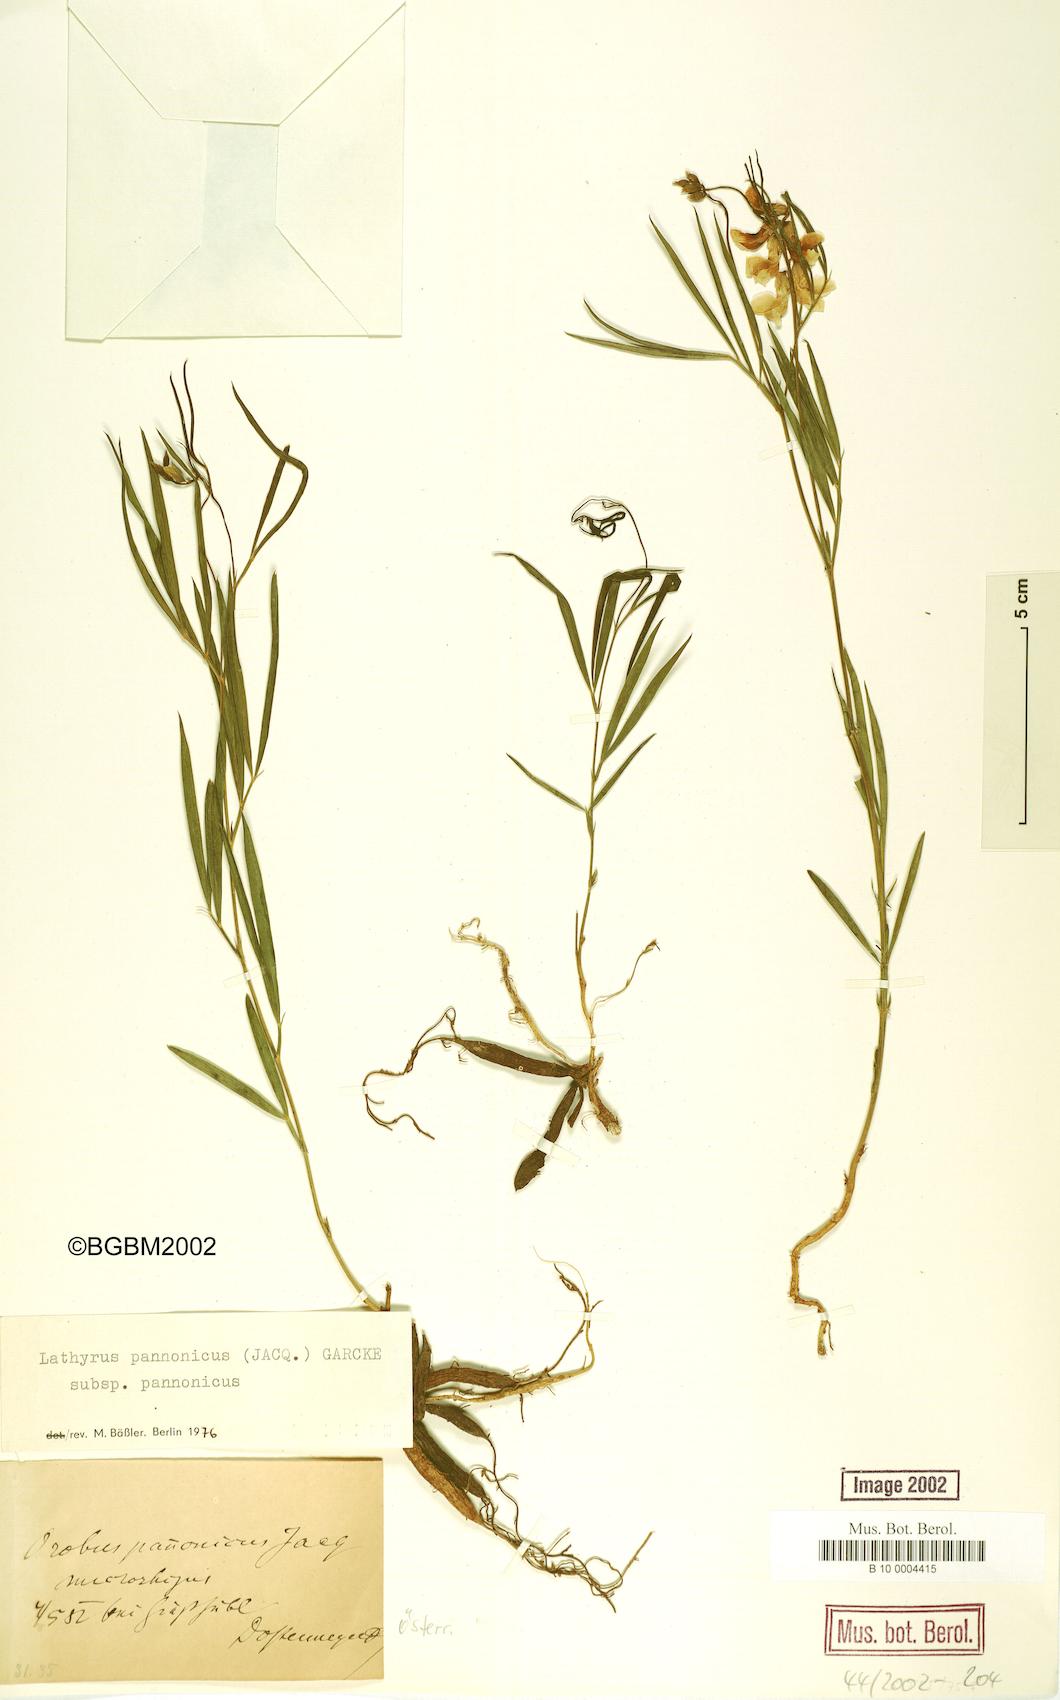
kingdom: Plantae
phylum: Tracheophyta
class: Magnoliopsida
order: Fabales
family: Fabaceae
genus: Lathyrus
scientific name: Lathyrus pannonicus
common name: Pea
